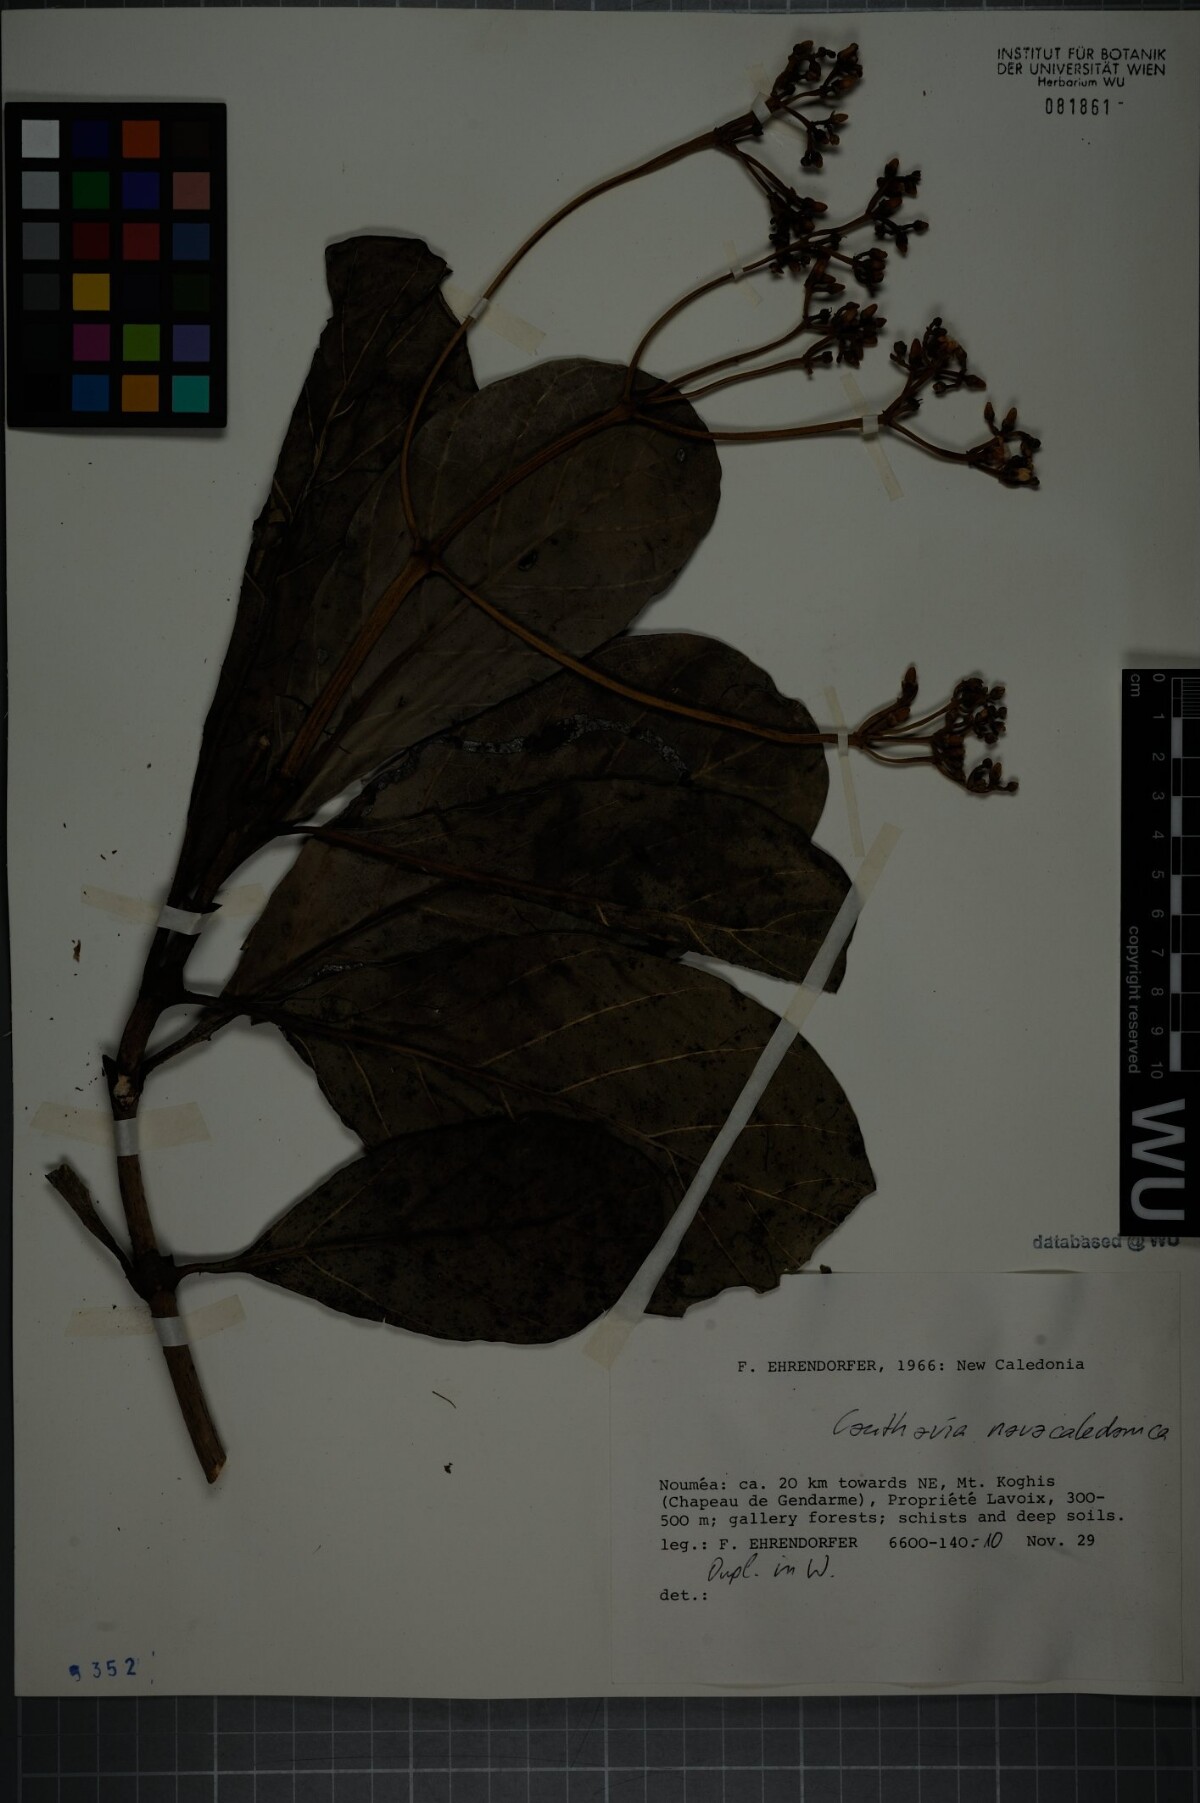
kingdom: Plantae
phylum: Tracheophyta
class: Magnoliopsida
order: Gentianales
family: Loganiaceae
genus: Neuburgia
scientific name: Neuburgia novocaledonica
